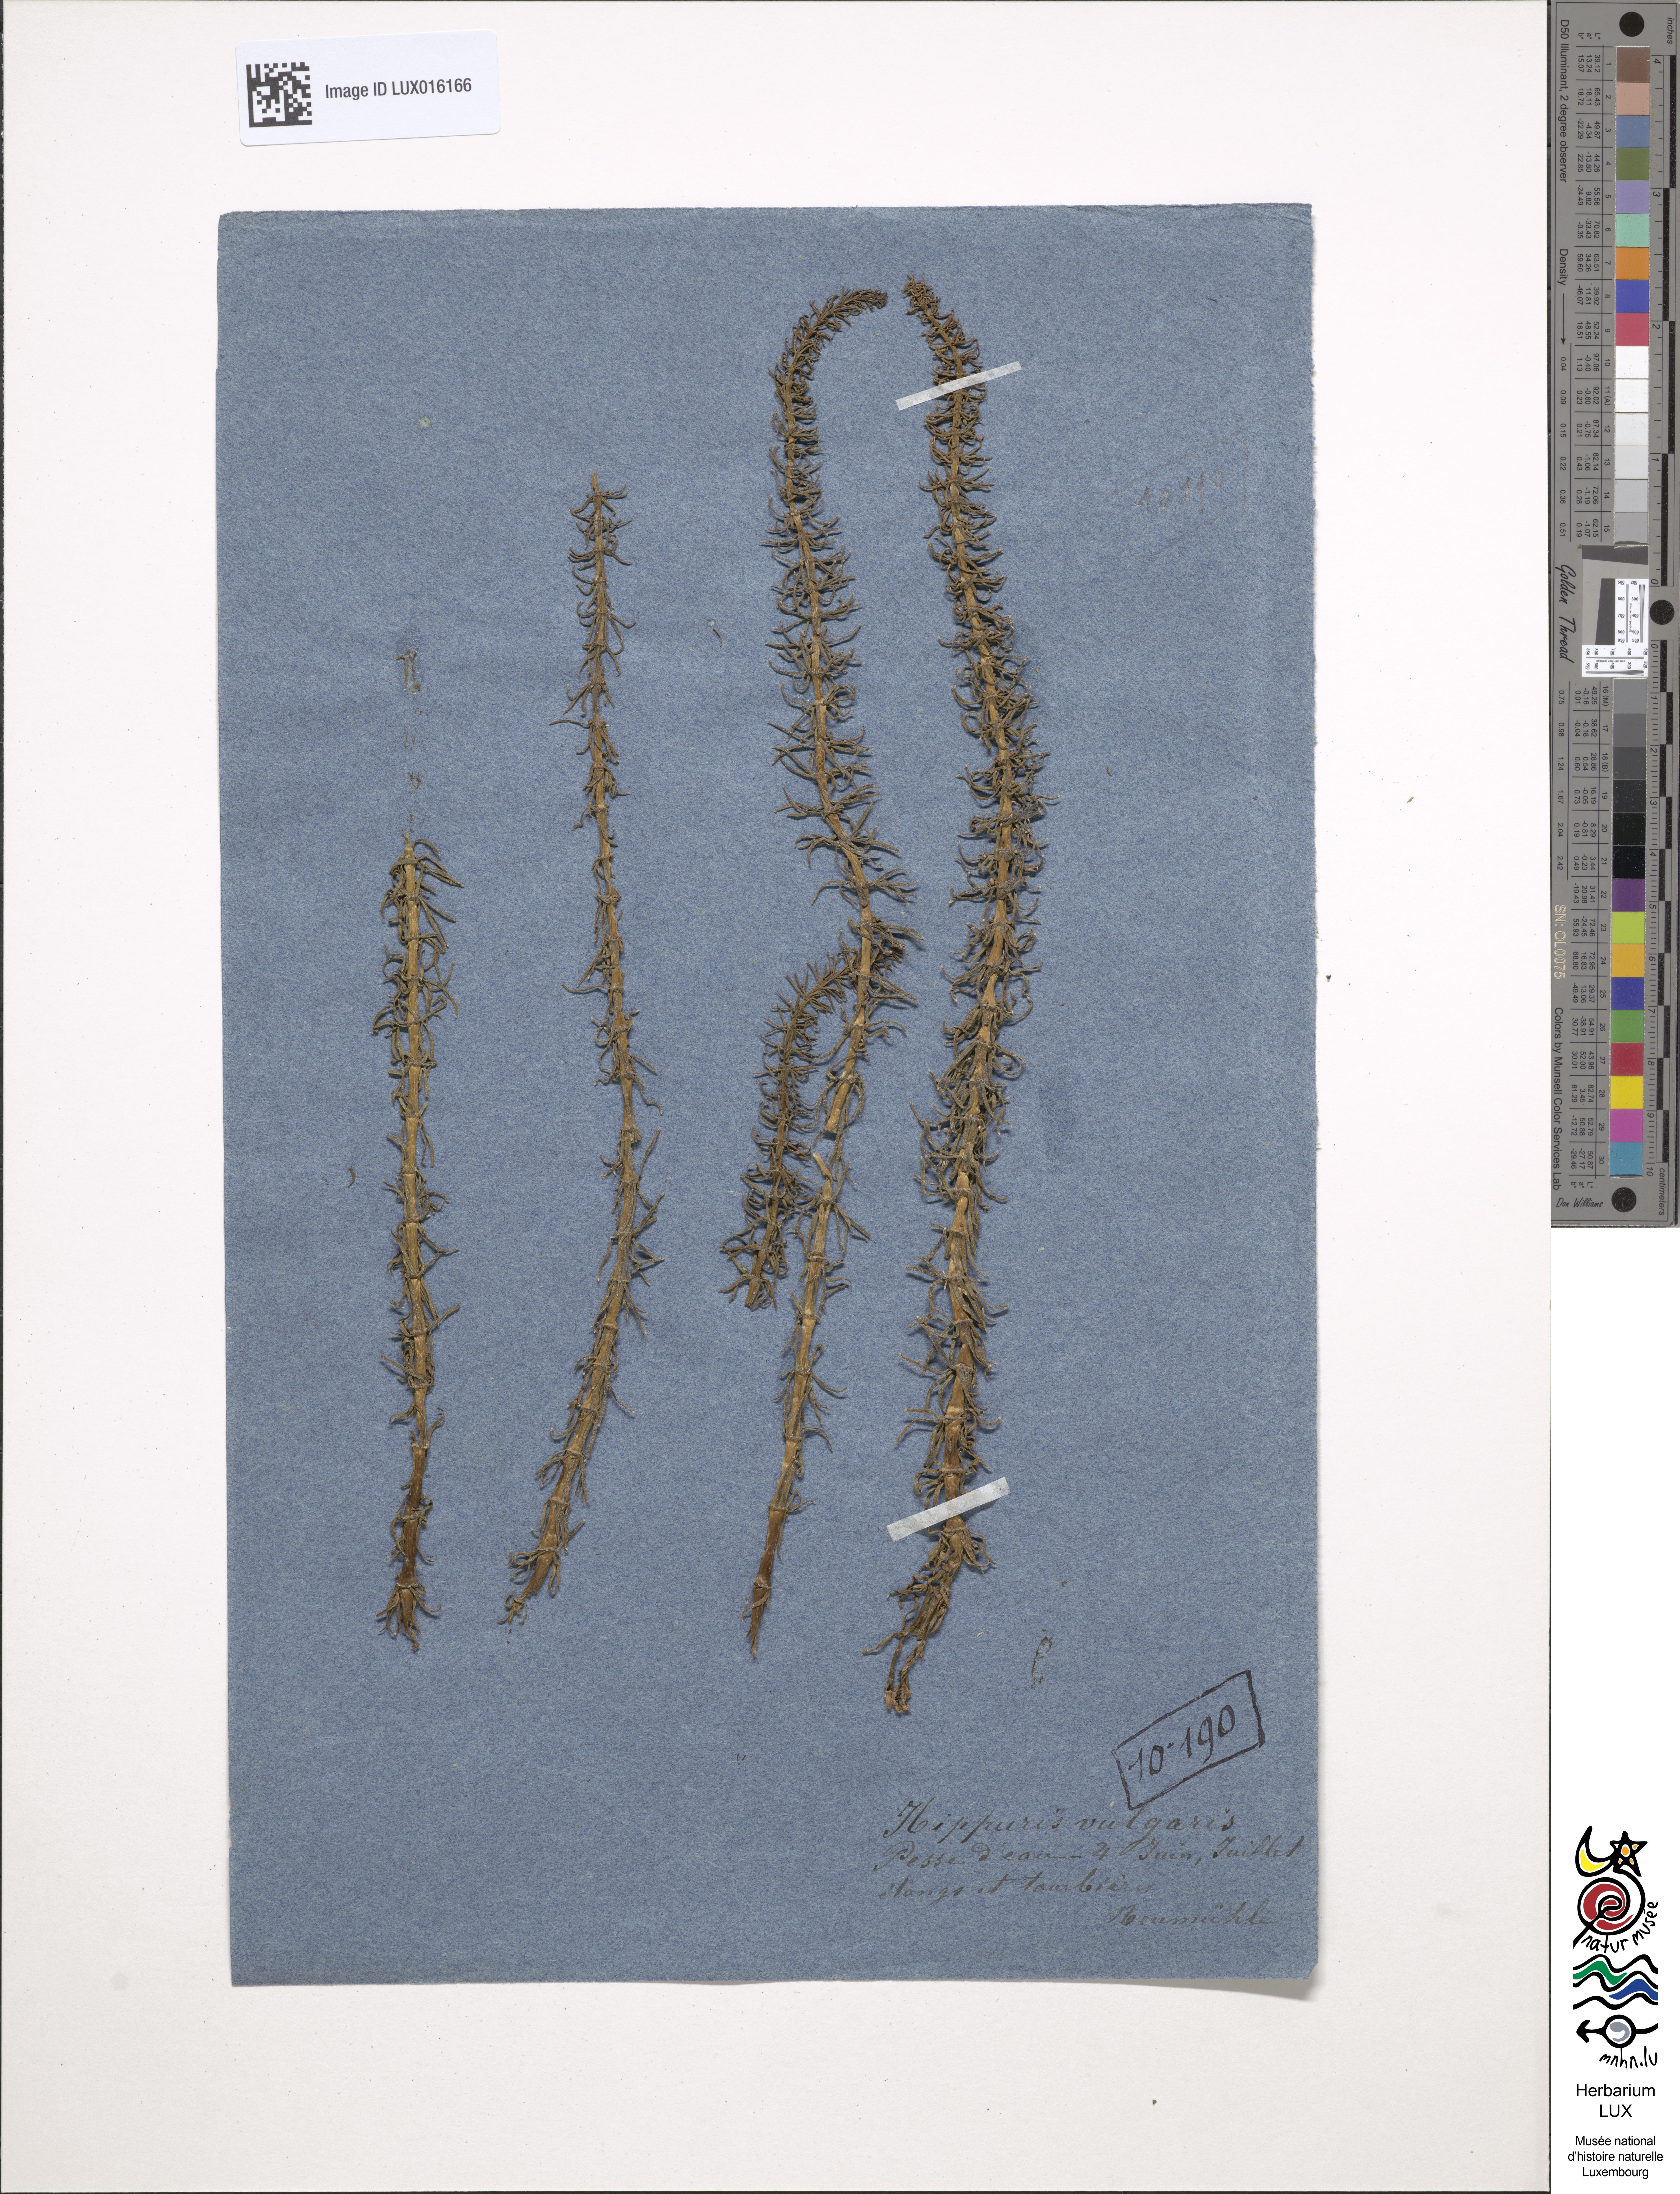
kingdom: Plantae
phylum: Tracheophyta
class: Magnoliopsida
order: Lamiales
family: Plantaginaceae
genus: Hippuris
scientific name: Hippuris vulgaris
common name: Mare's-tail
